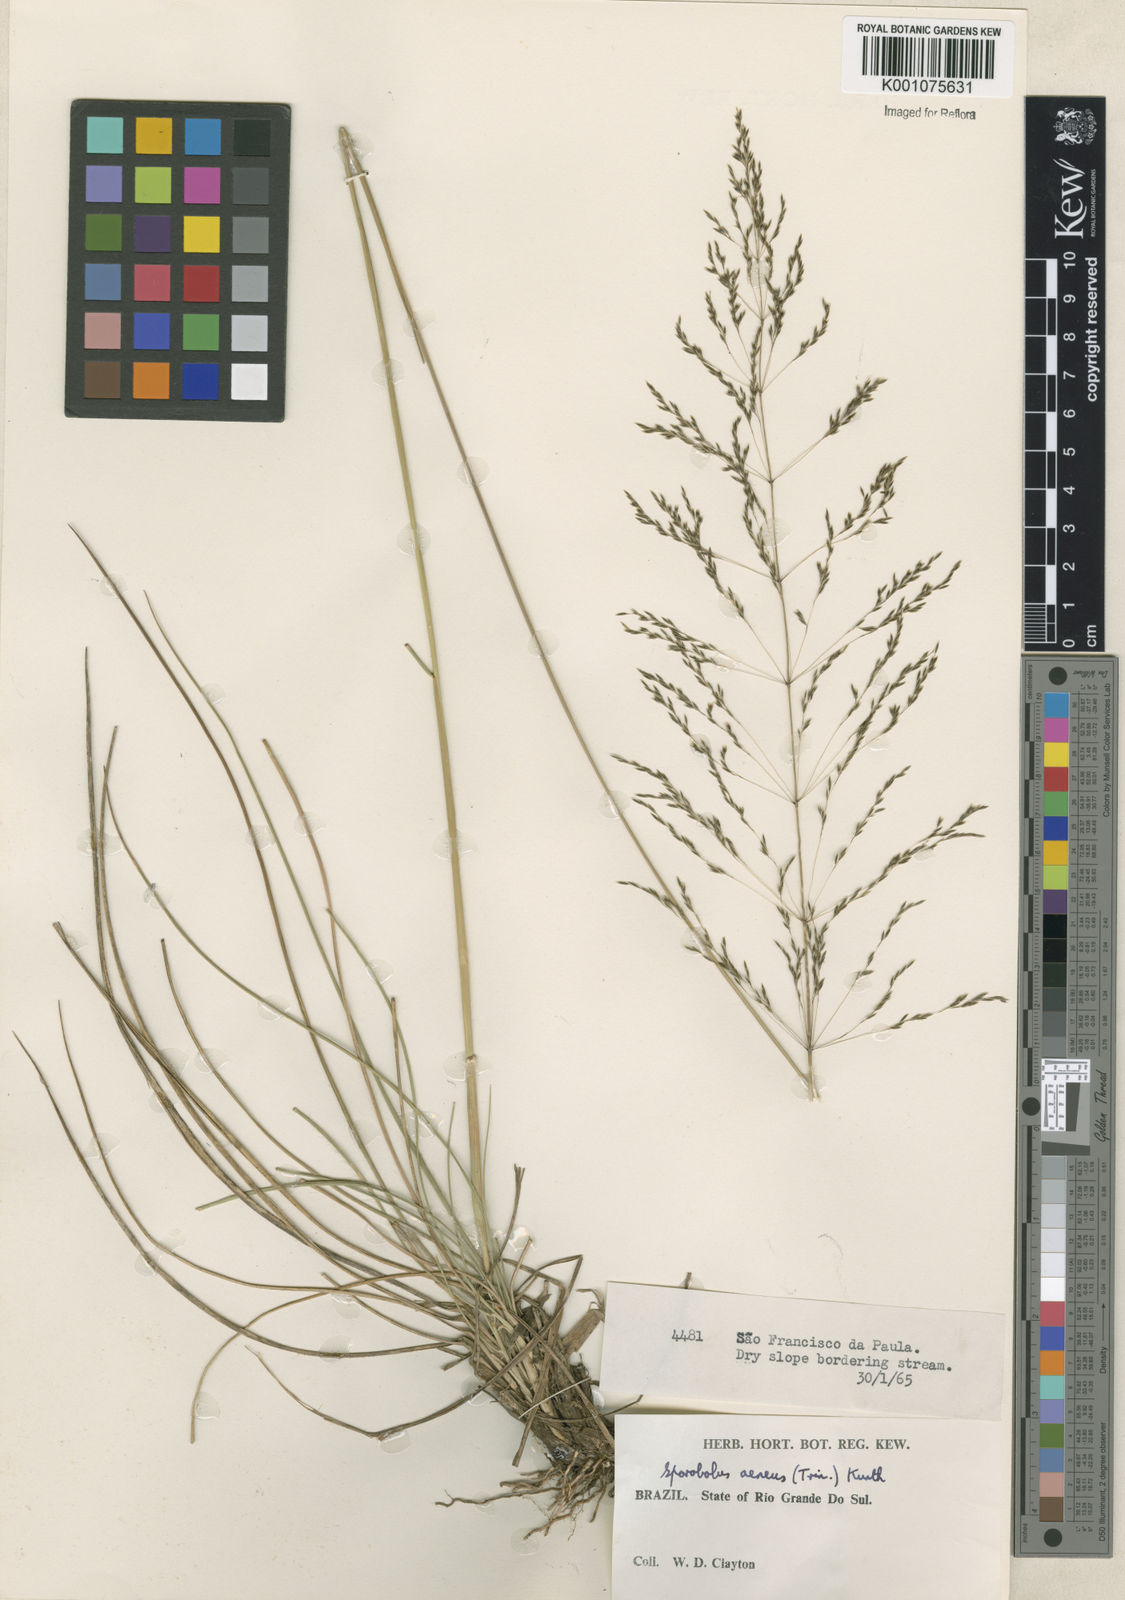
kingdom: Plantae
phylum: Tracheophyta
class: Liliopsida
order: Poales
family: Poaceae
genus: Sporobolus
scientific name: Sporobolus camporum
